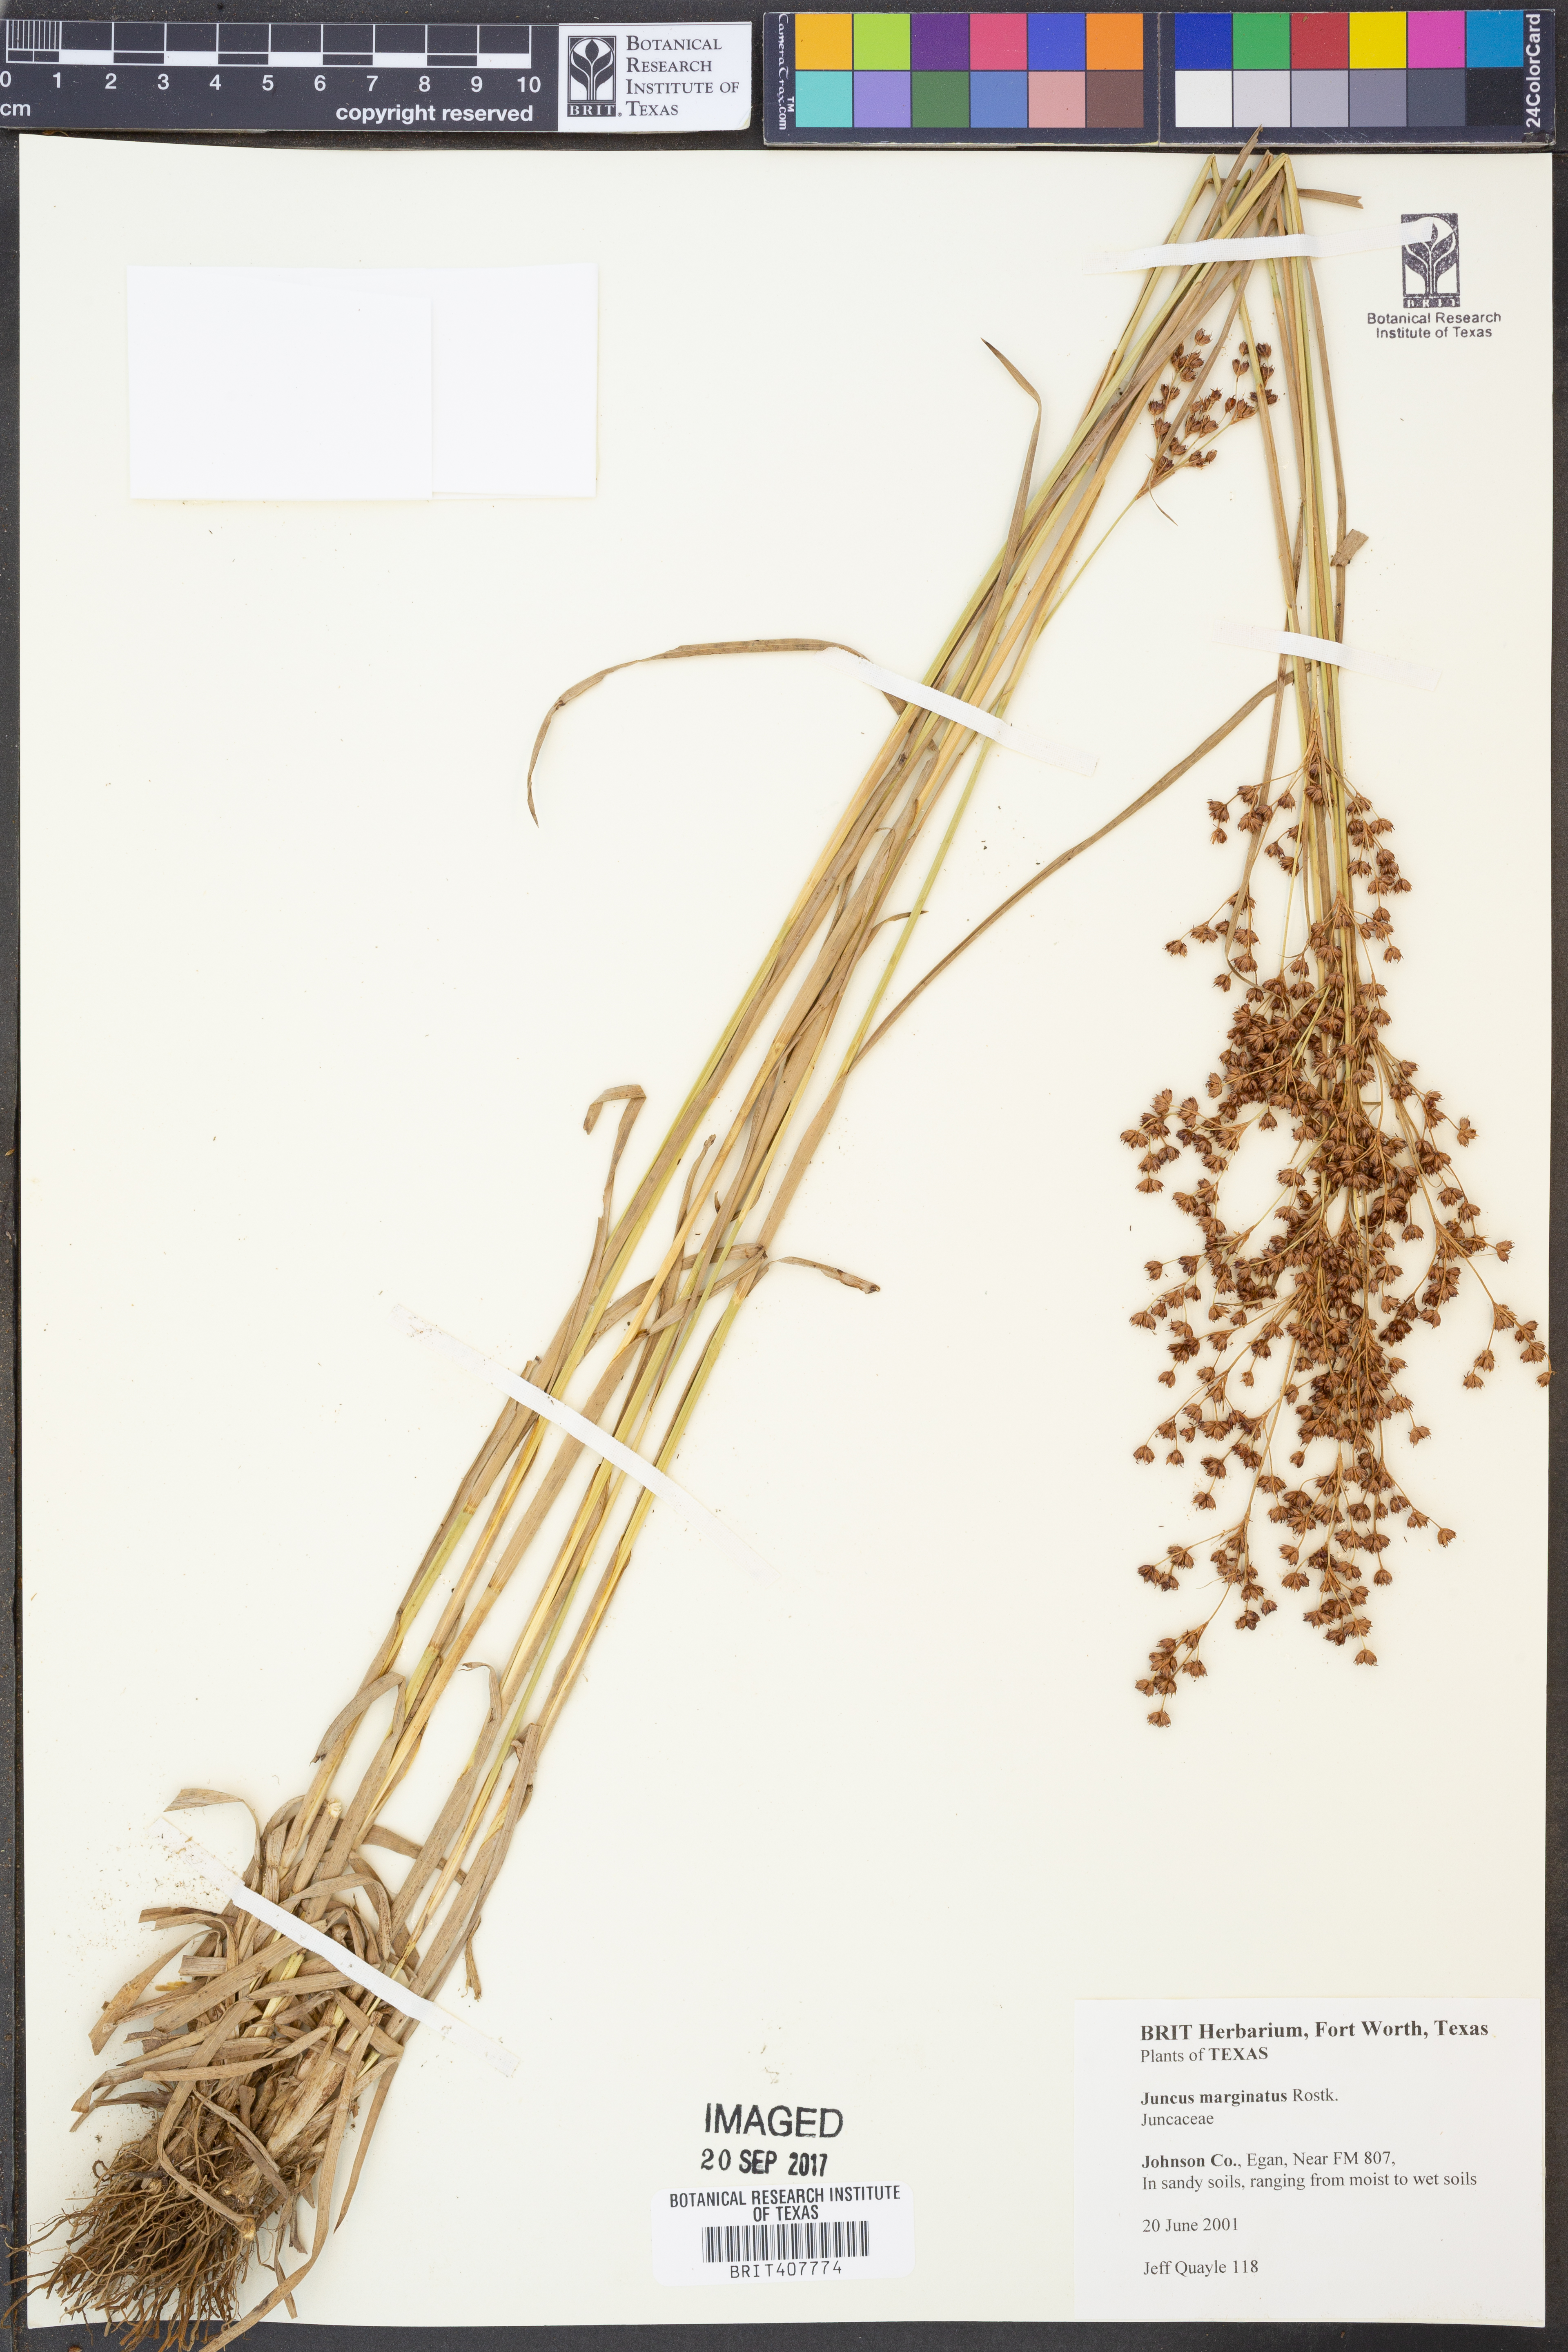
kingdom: Plantae
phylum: Tracheophyta
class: Liliopsida
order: Poales
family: Juncaceae
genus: Juncus
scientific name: Juncus marginatus
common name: Grass-leaf rush
